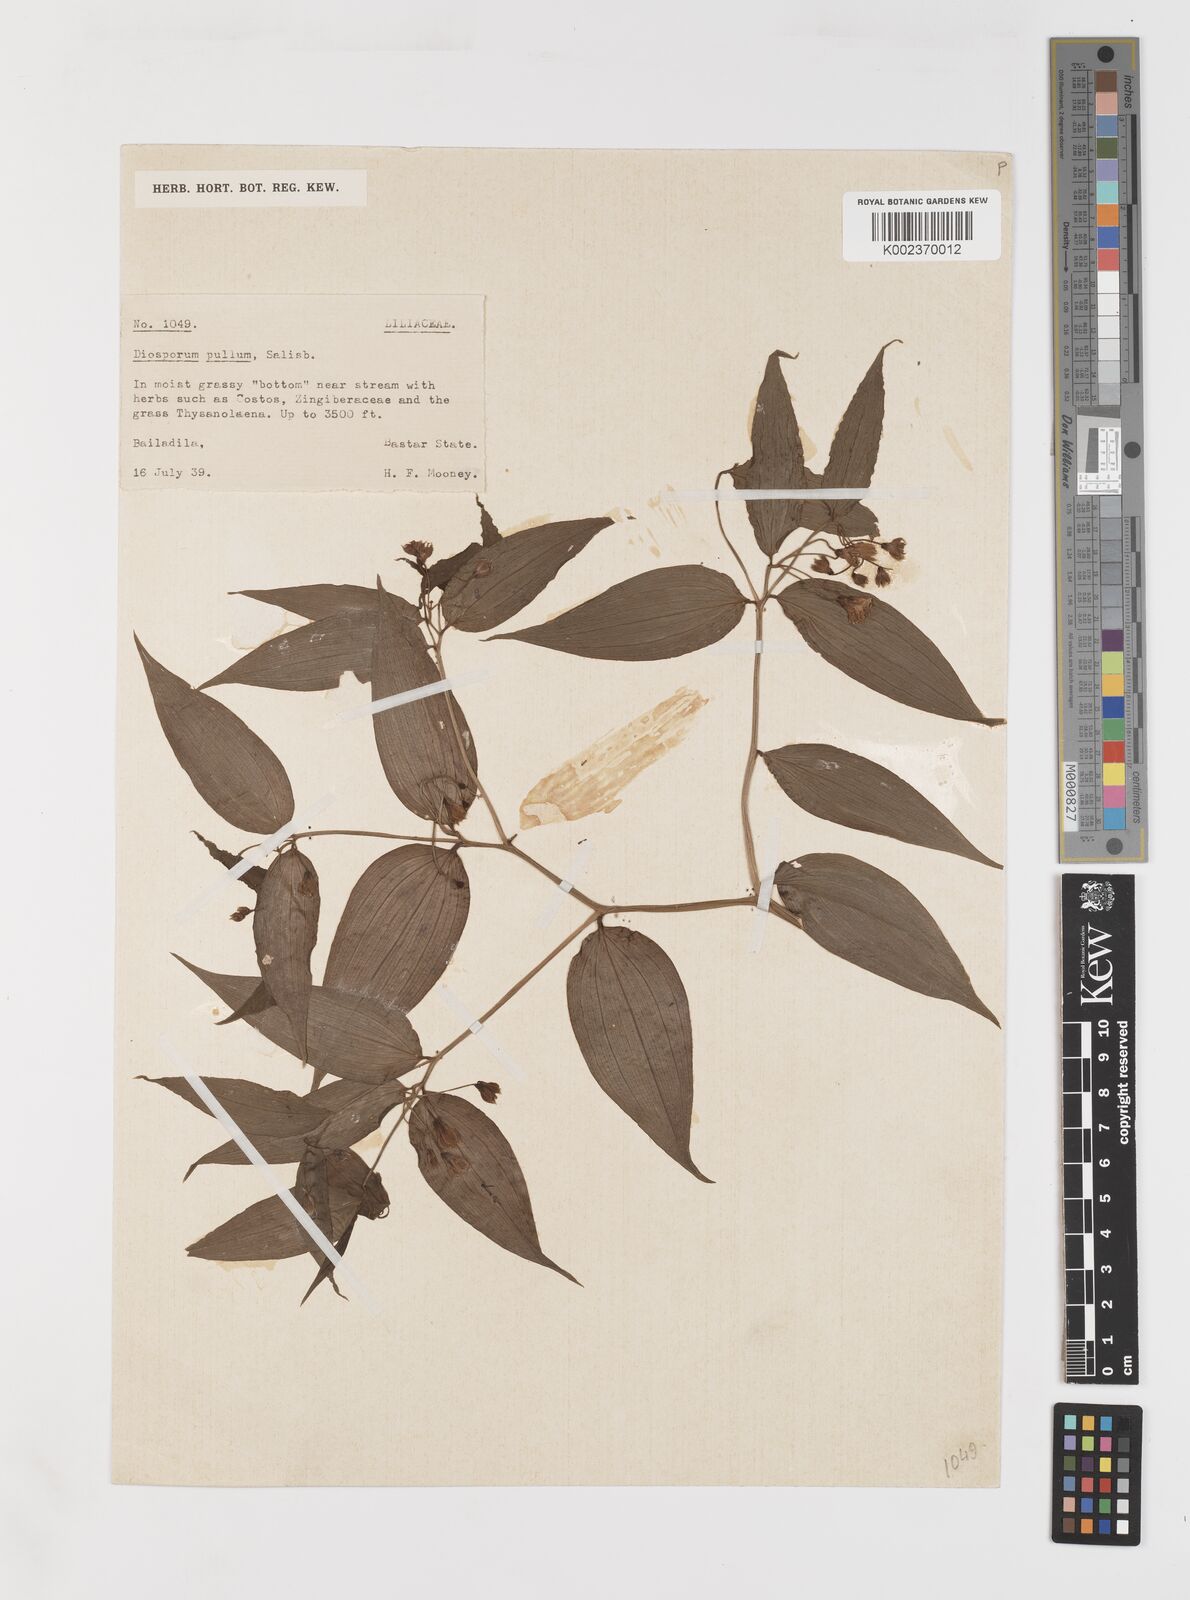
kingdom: Plantae
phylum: Tracheophyta
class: Liliopsida
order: Liliales
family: Colchicaceae
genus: Disporum
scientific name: Disporum cantoniense
